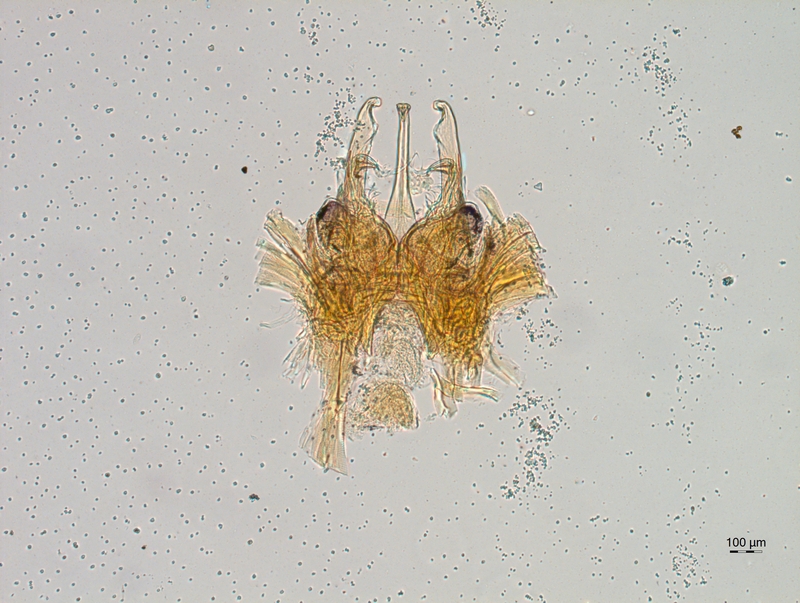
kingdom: Animalia
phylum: Arthropoda
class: Diplopoda
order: Chordeumatida
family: Chordeumatidae
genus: Mycogona
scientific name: Mycogona germanica
